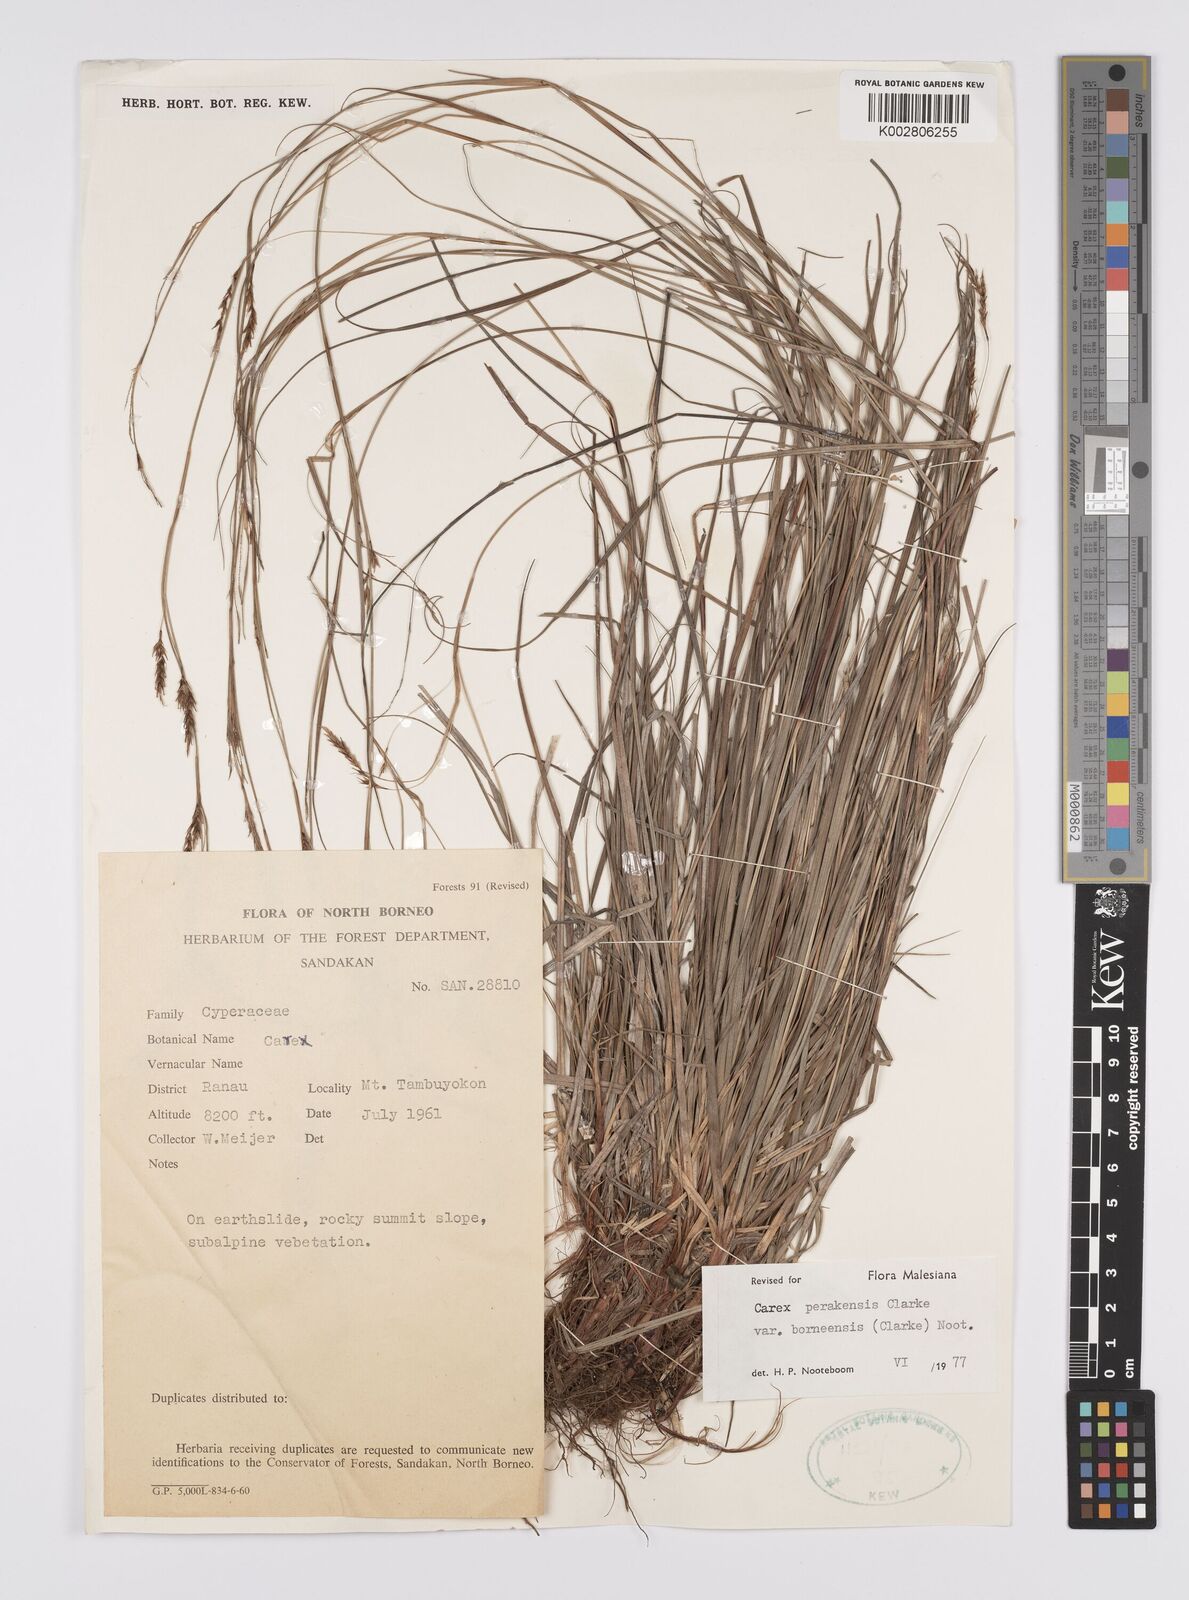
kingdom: Plantae
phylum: Tracheophyta
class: Liliopsida
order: Poales
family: Cyperaceae
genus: Carex
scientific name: Carex perakensis
